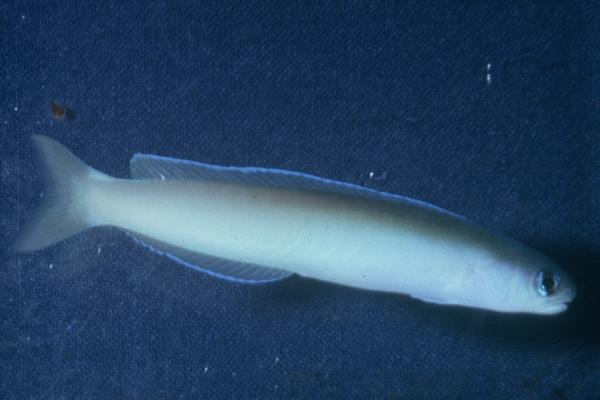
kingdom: Animalia
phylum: Chordata
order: Perciformes
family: Malacanthidae
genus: Hoplolatilus
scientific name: Hoplolatilus cuniculus
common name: Green tilefish
